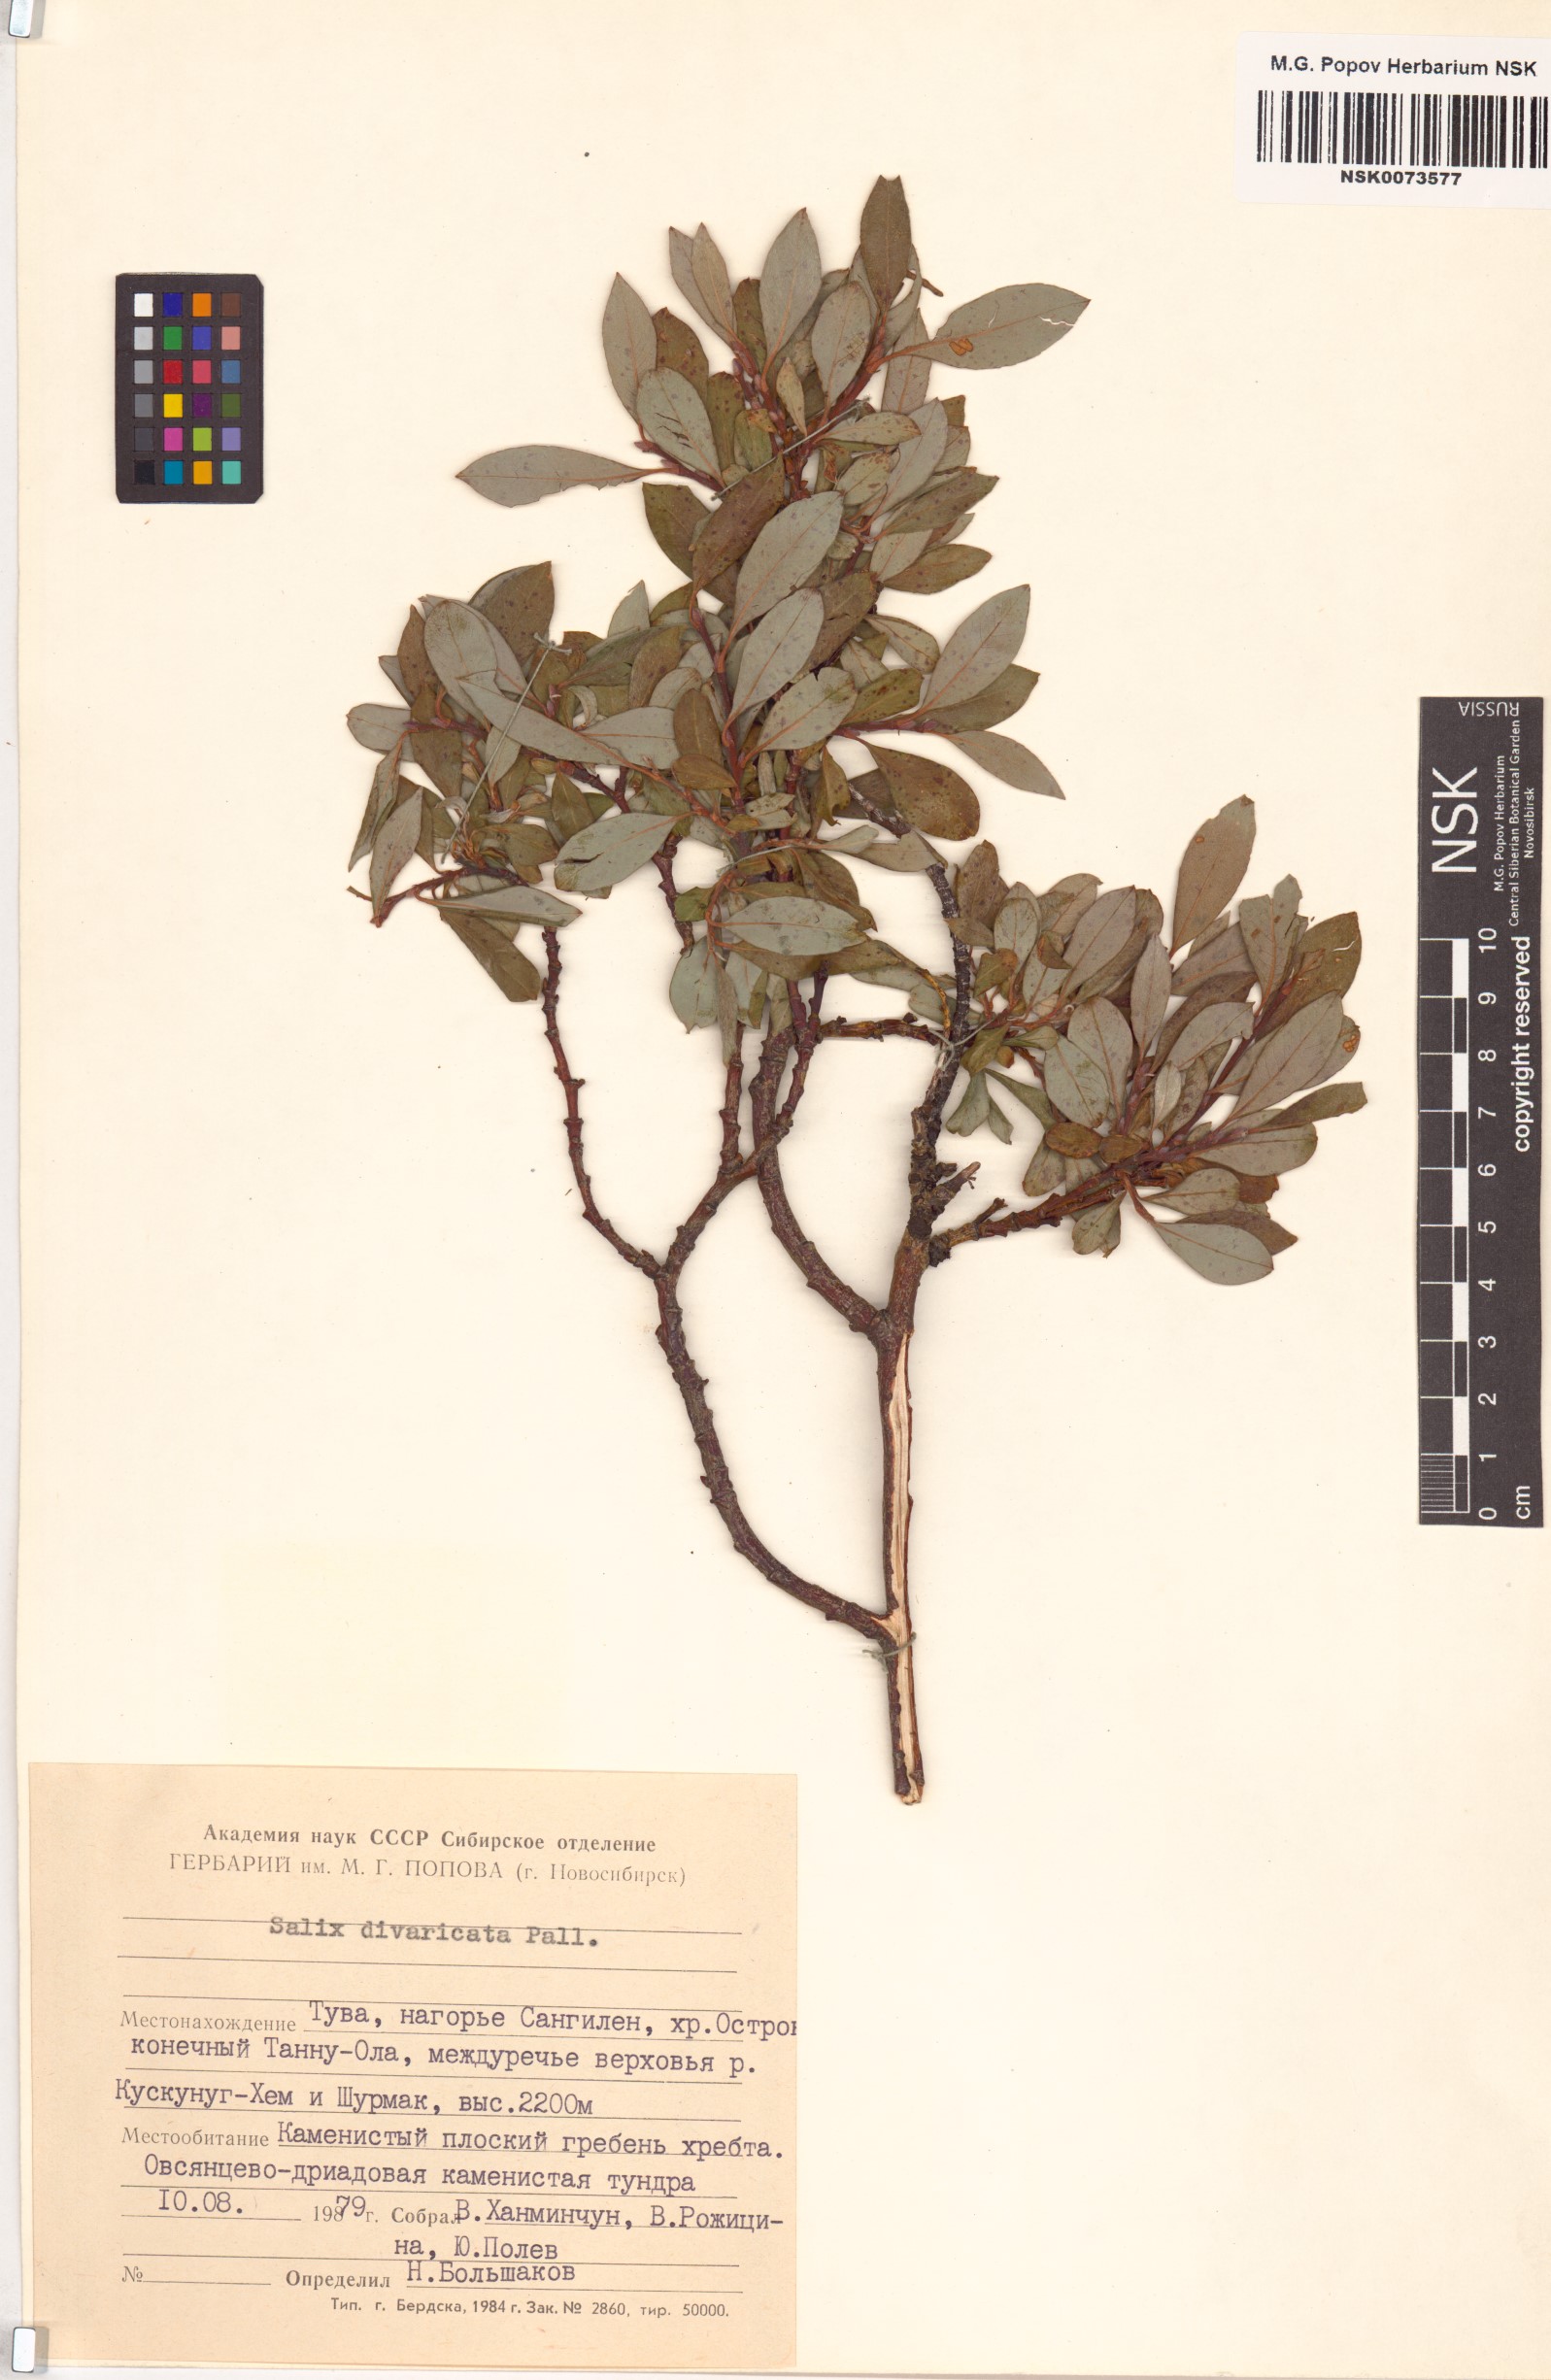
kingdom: Plantae
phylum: Tracheophyta
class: Magnoliopsida
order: Malpighiales
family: Salicaceae
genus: Salix
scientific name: Salix divaricata
